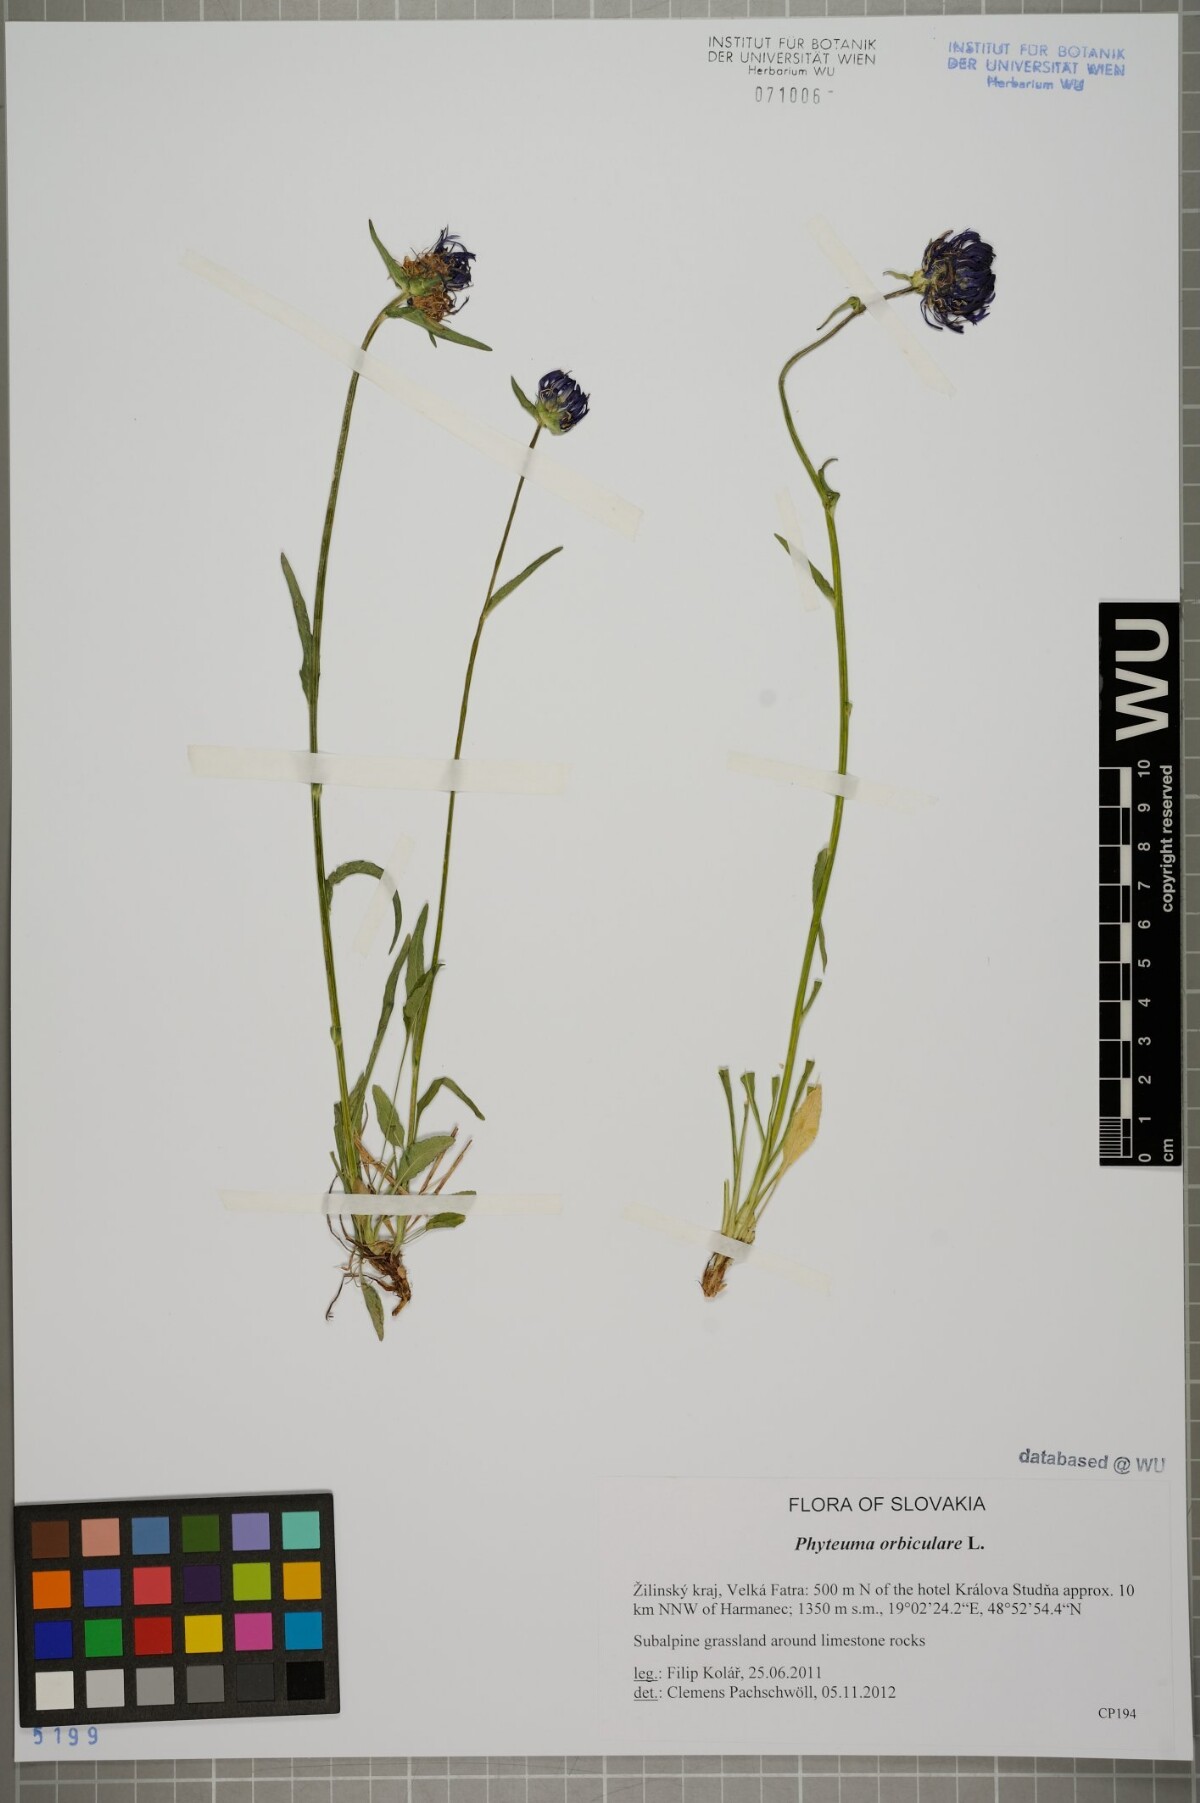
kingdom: Plantae
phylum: Tracheophyta
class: Magnoliopsida
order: Asterales
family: Campanulaceae
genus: Phyteuma
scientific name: Phyteuma orbiculare
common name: Round-headed rampion
